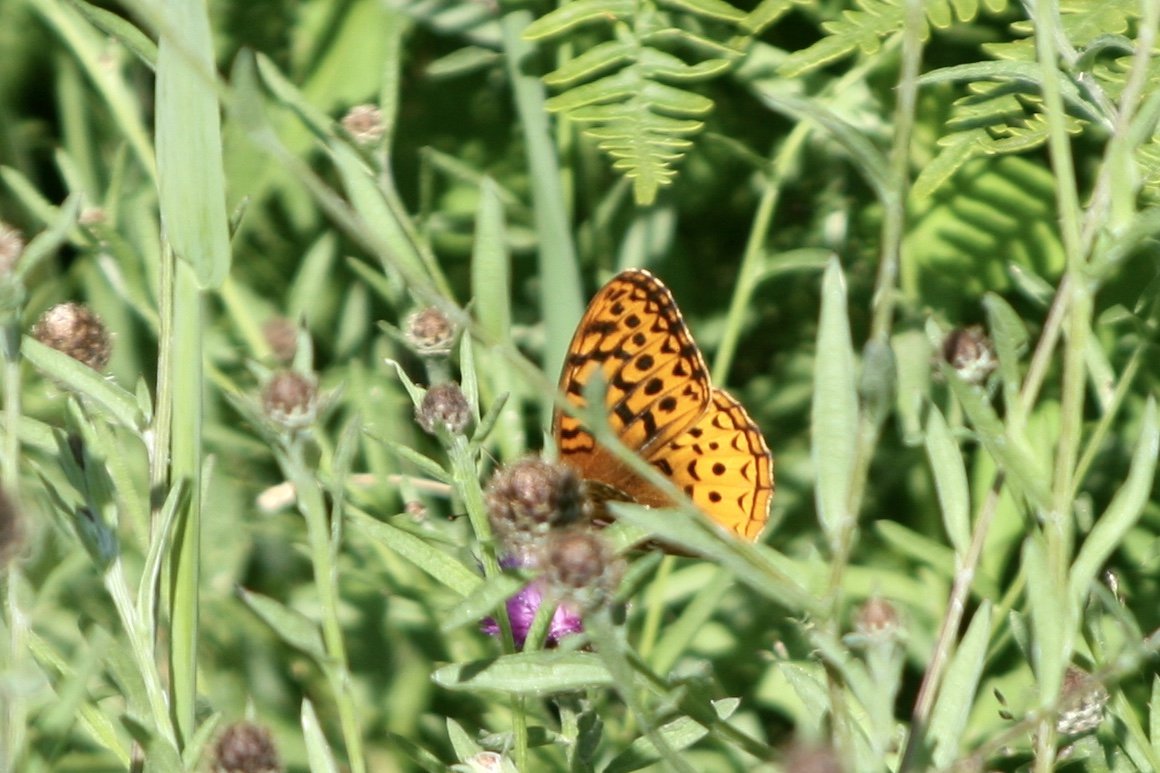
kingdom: Animalia
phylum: Arthropoda
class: Insecta
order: Lepidoptera
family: Nymphalidae
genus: Speyeria
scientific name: Speyeria cybele
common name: Great Spangled Fritillary
